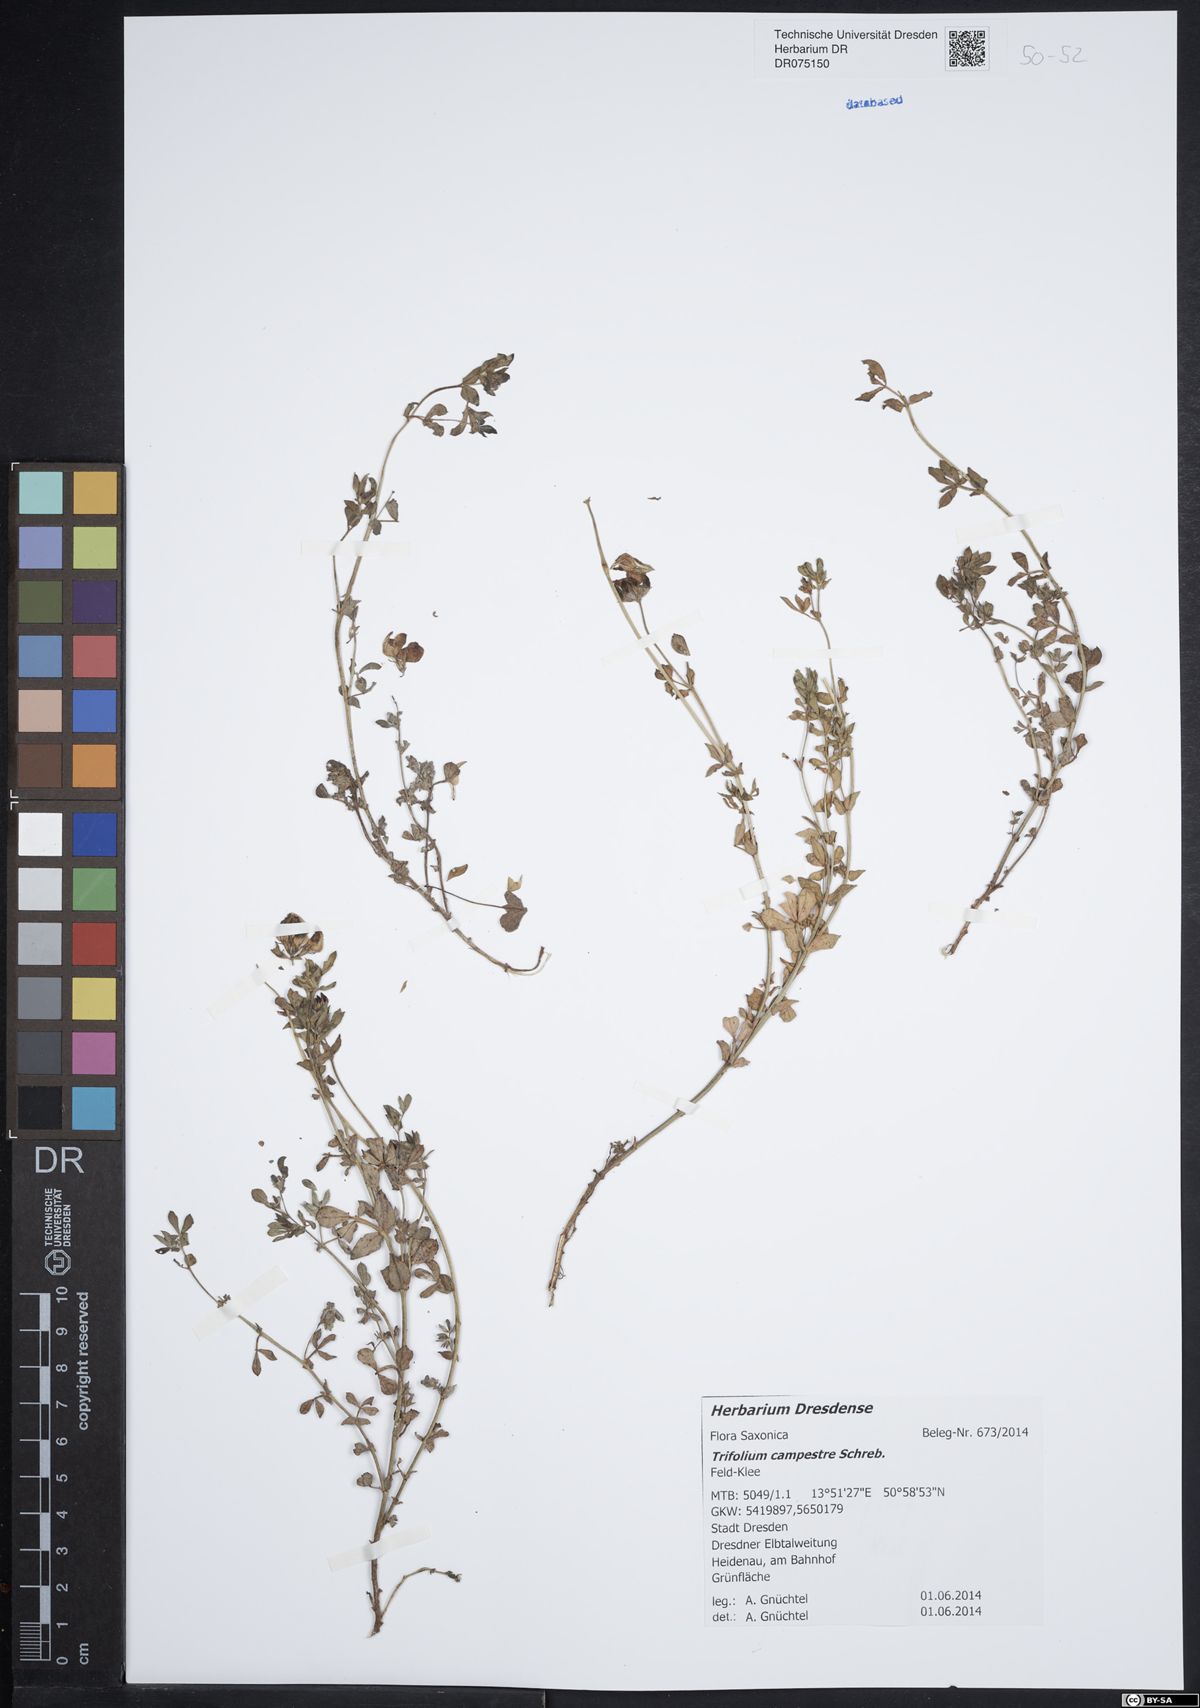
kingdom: Plantae
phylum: Tracheophyta
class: Magnoliopsida
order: Fabales
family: Fabaceae
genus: Trifolium
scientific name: Trifolium campestre
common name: Field clover
